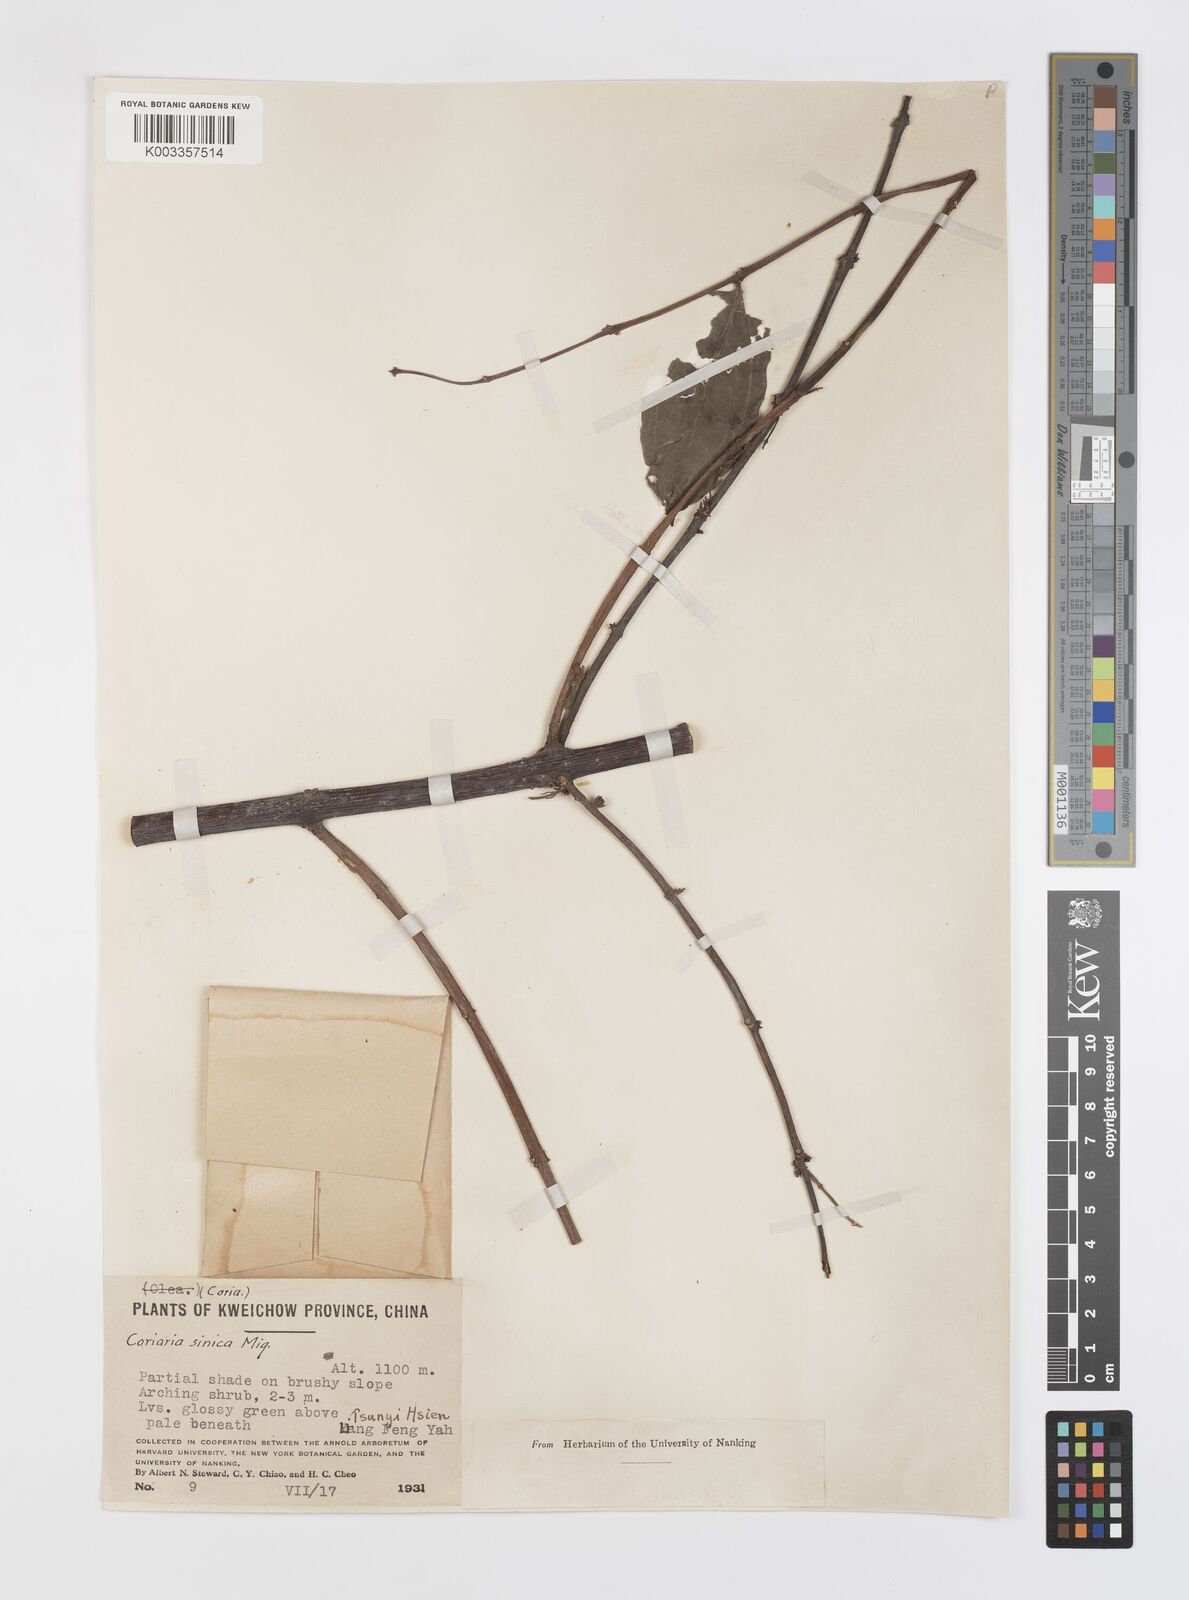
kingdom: Plantae
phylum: Tracheophyta
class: Magnoliopsida
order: Cucurbitales
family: Coriariaceae
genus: Coriaria
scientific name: Coriaria napalensis
